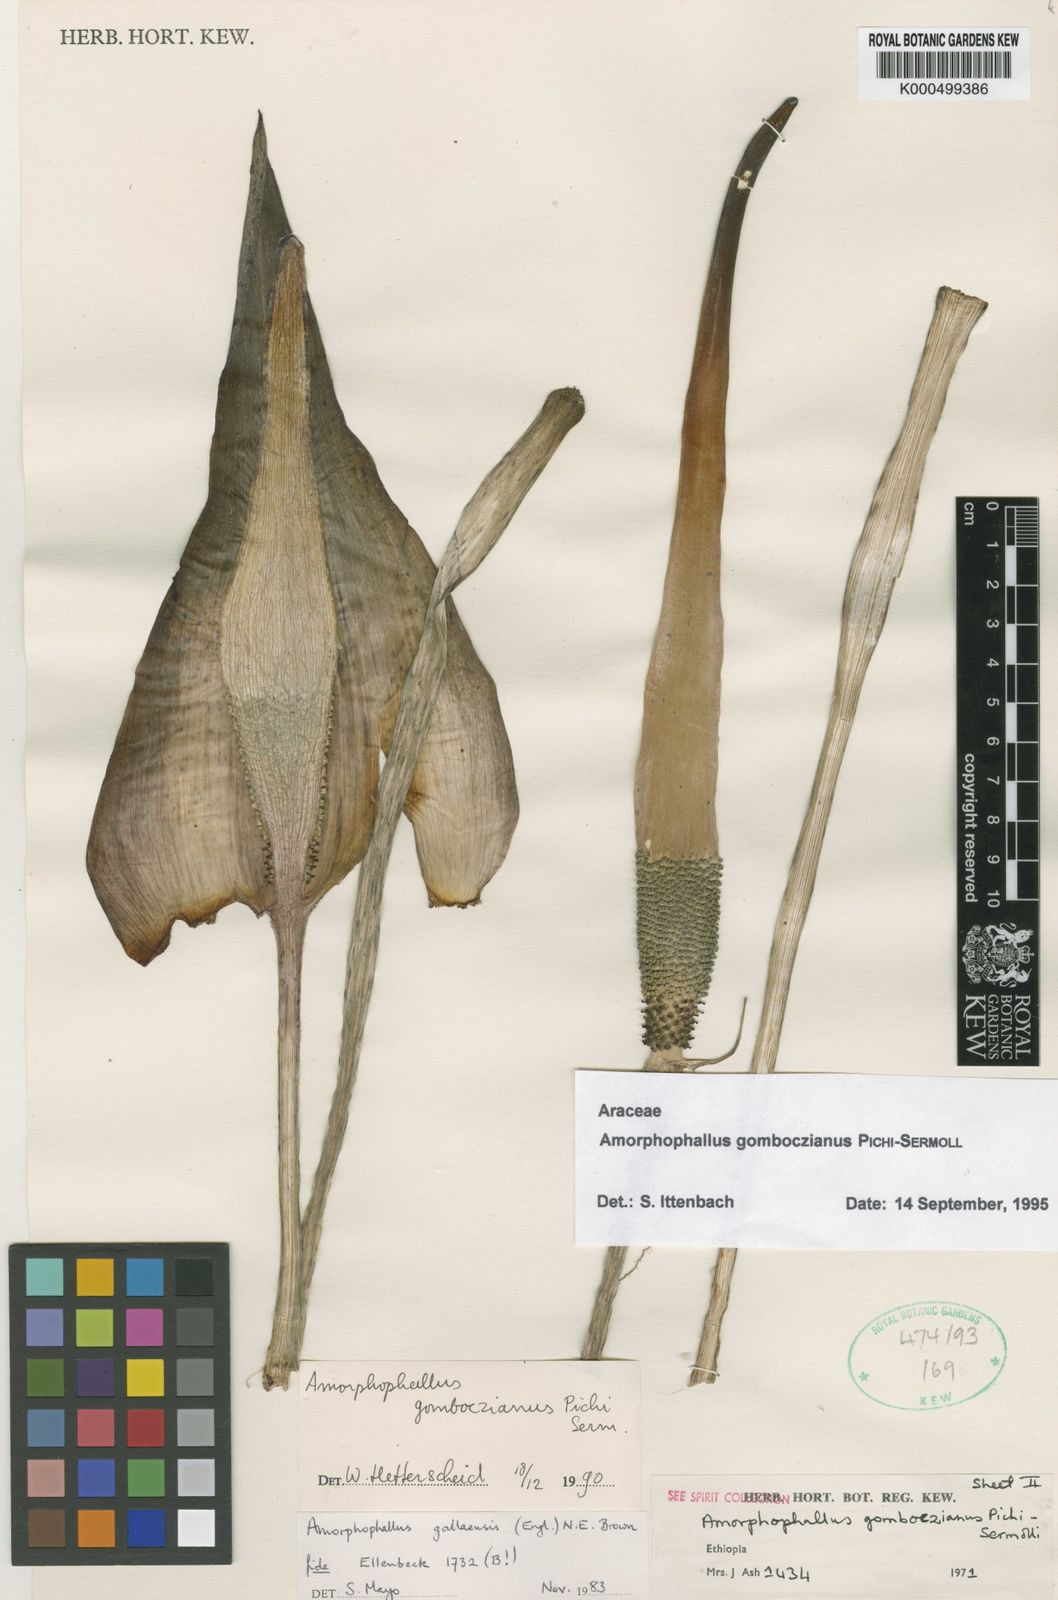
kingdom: Plantae
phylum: Tracheophyta
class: Liliopsida
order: Alismatales
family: Araceae
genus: Amorphophallus
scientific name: Amorphophallus
